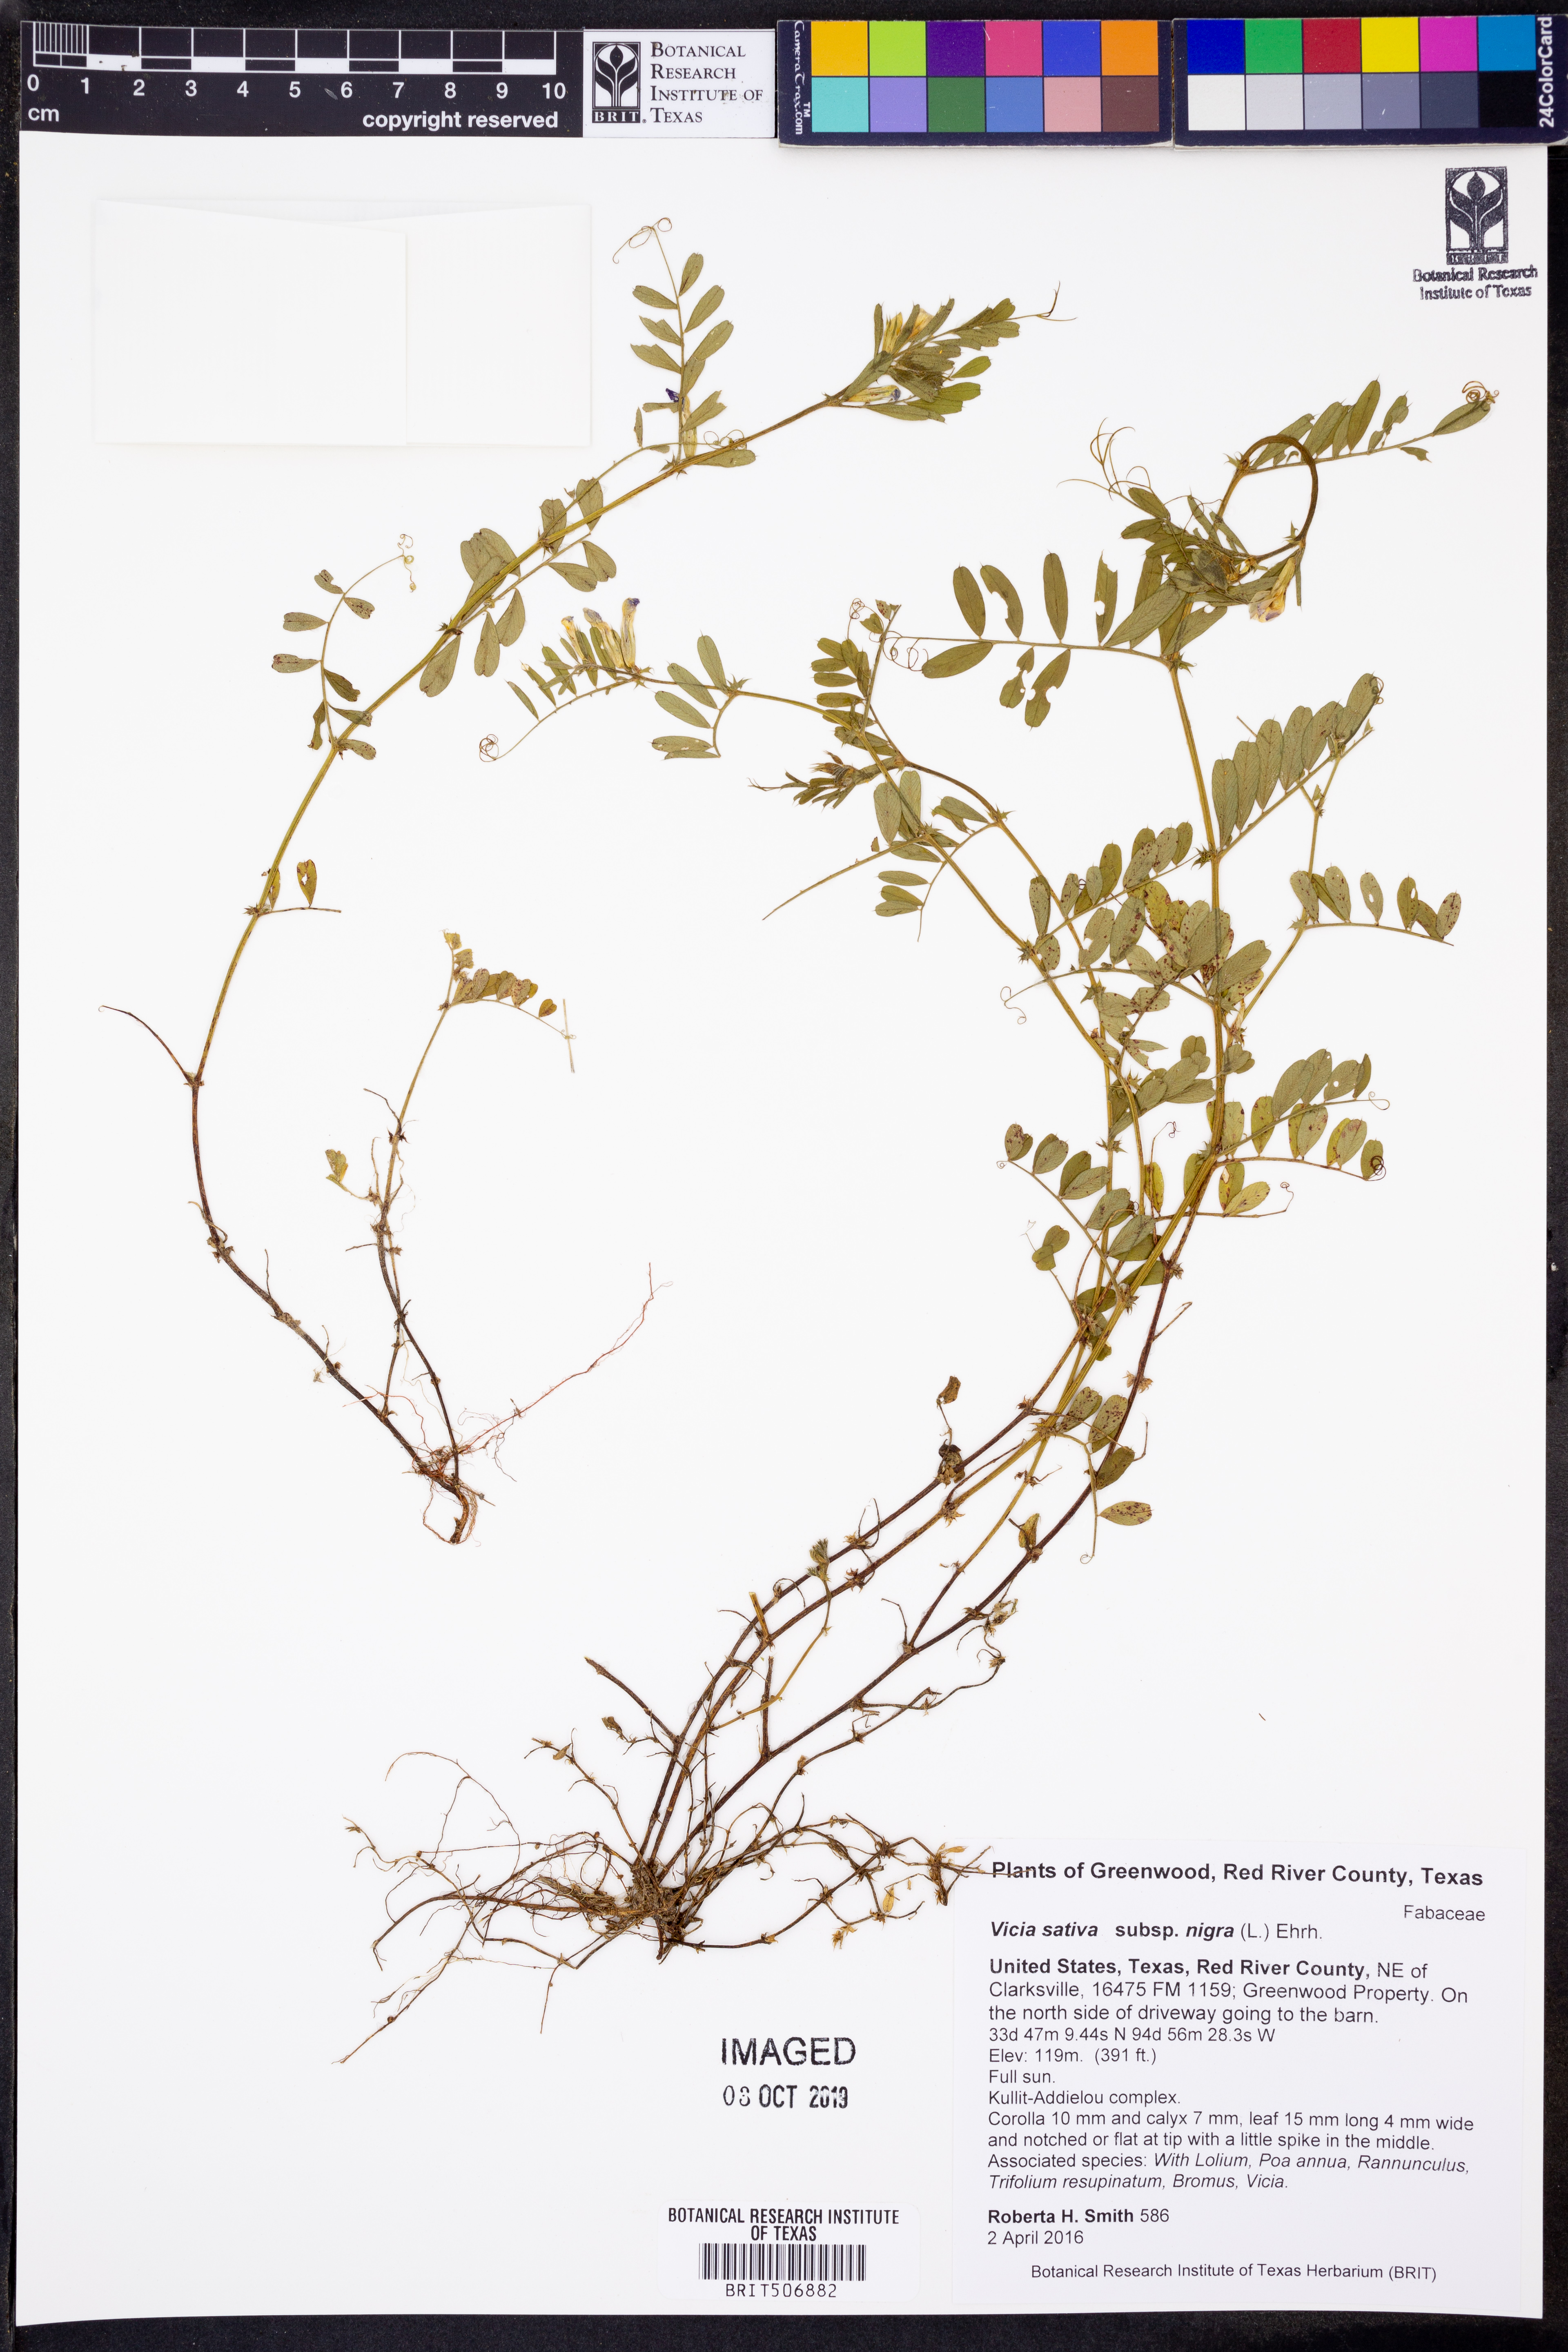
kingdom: Plantae
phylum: Tracheophyta
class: Magnoliopsida
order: Fabales
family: Fabaceae
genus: Vicia
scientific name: Vicia sativa
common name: Garden vetch
